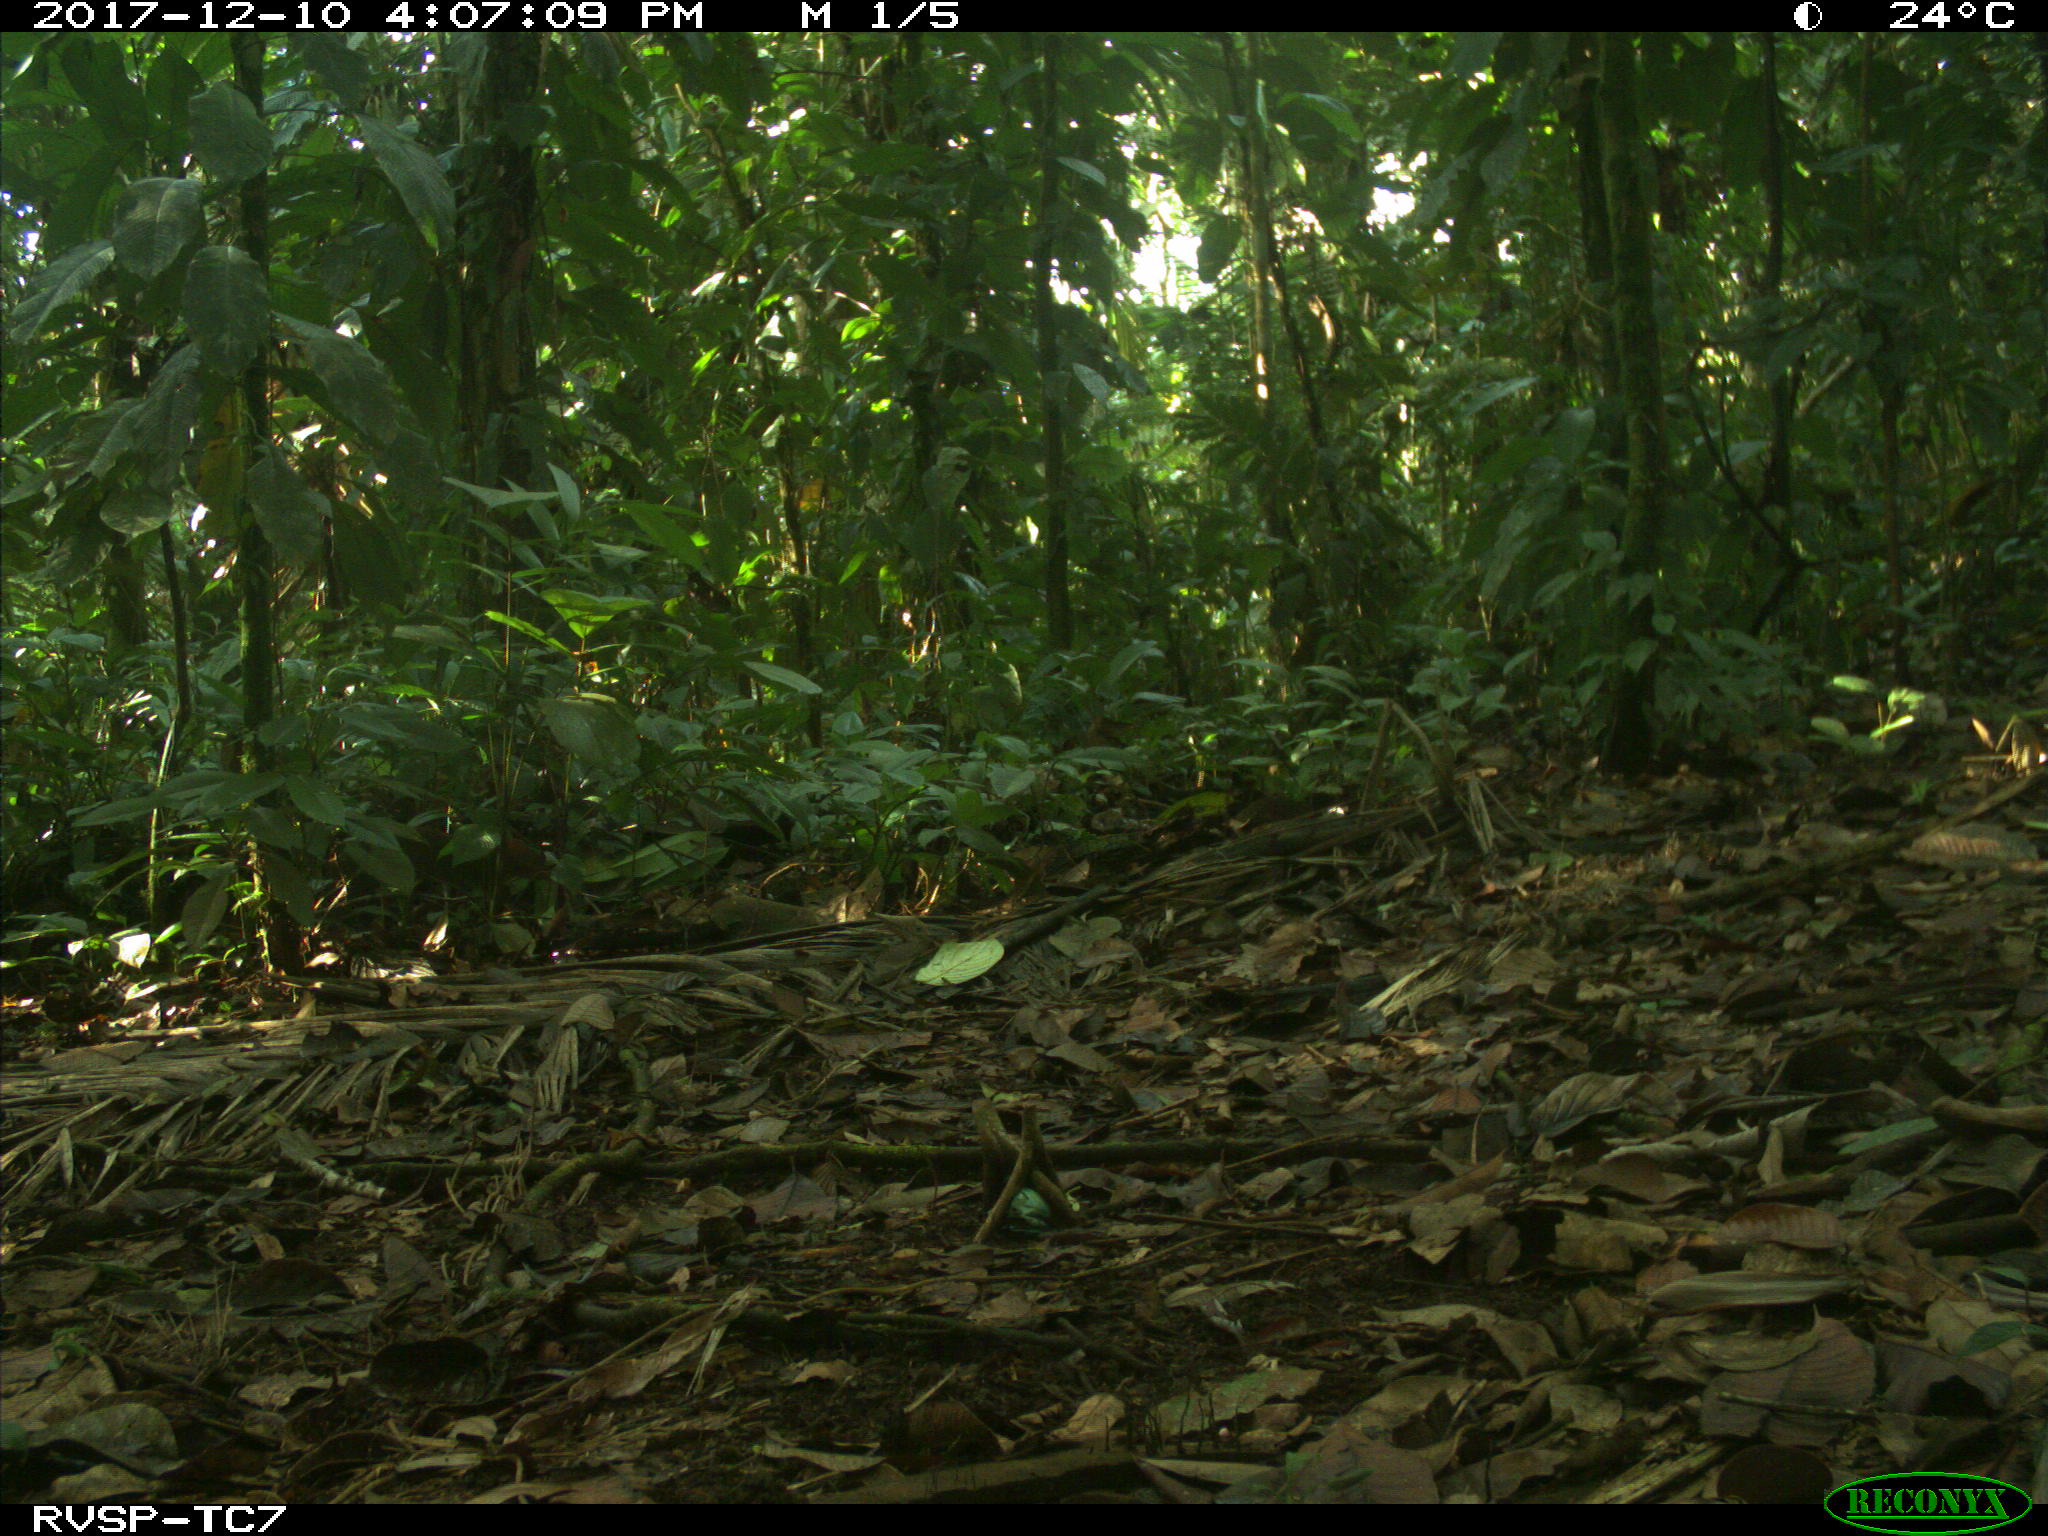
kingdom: Animalia
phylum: Chordata
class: Mammalia
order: Rodentia
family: Dasyproctidae
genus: Dasyprocta
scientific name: Dasyprocta punctata
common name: Central american agouti
